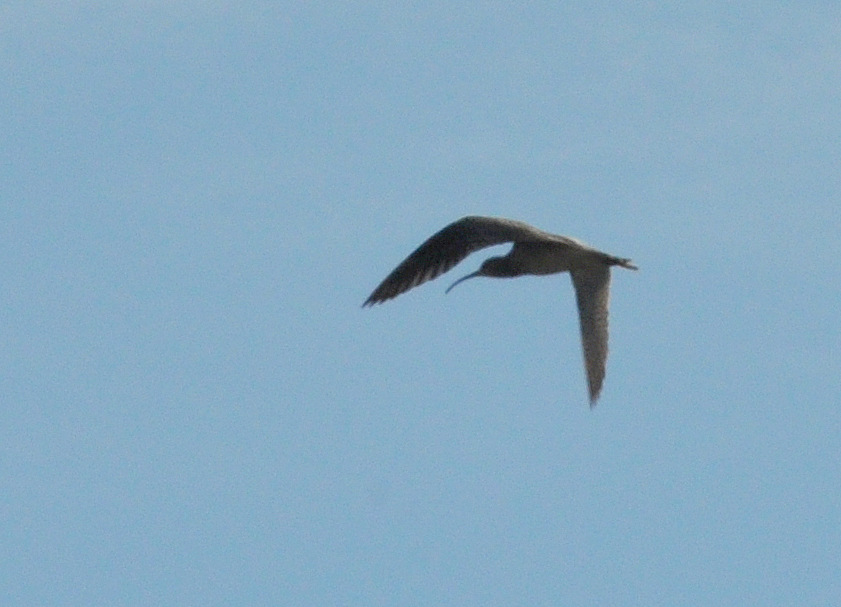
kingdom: Animalia
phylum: Chordata
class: Aves
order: Charadriiformes
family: Scolopacidae
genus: Numenius
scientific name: Numenius phaeopus
